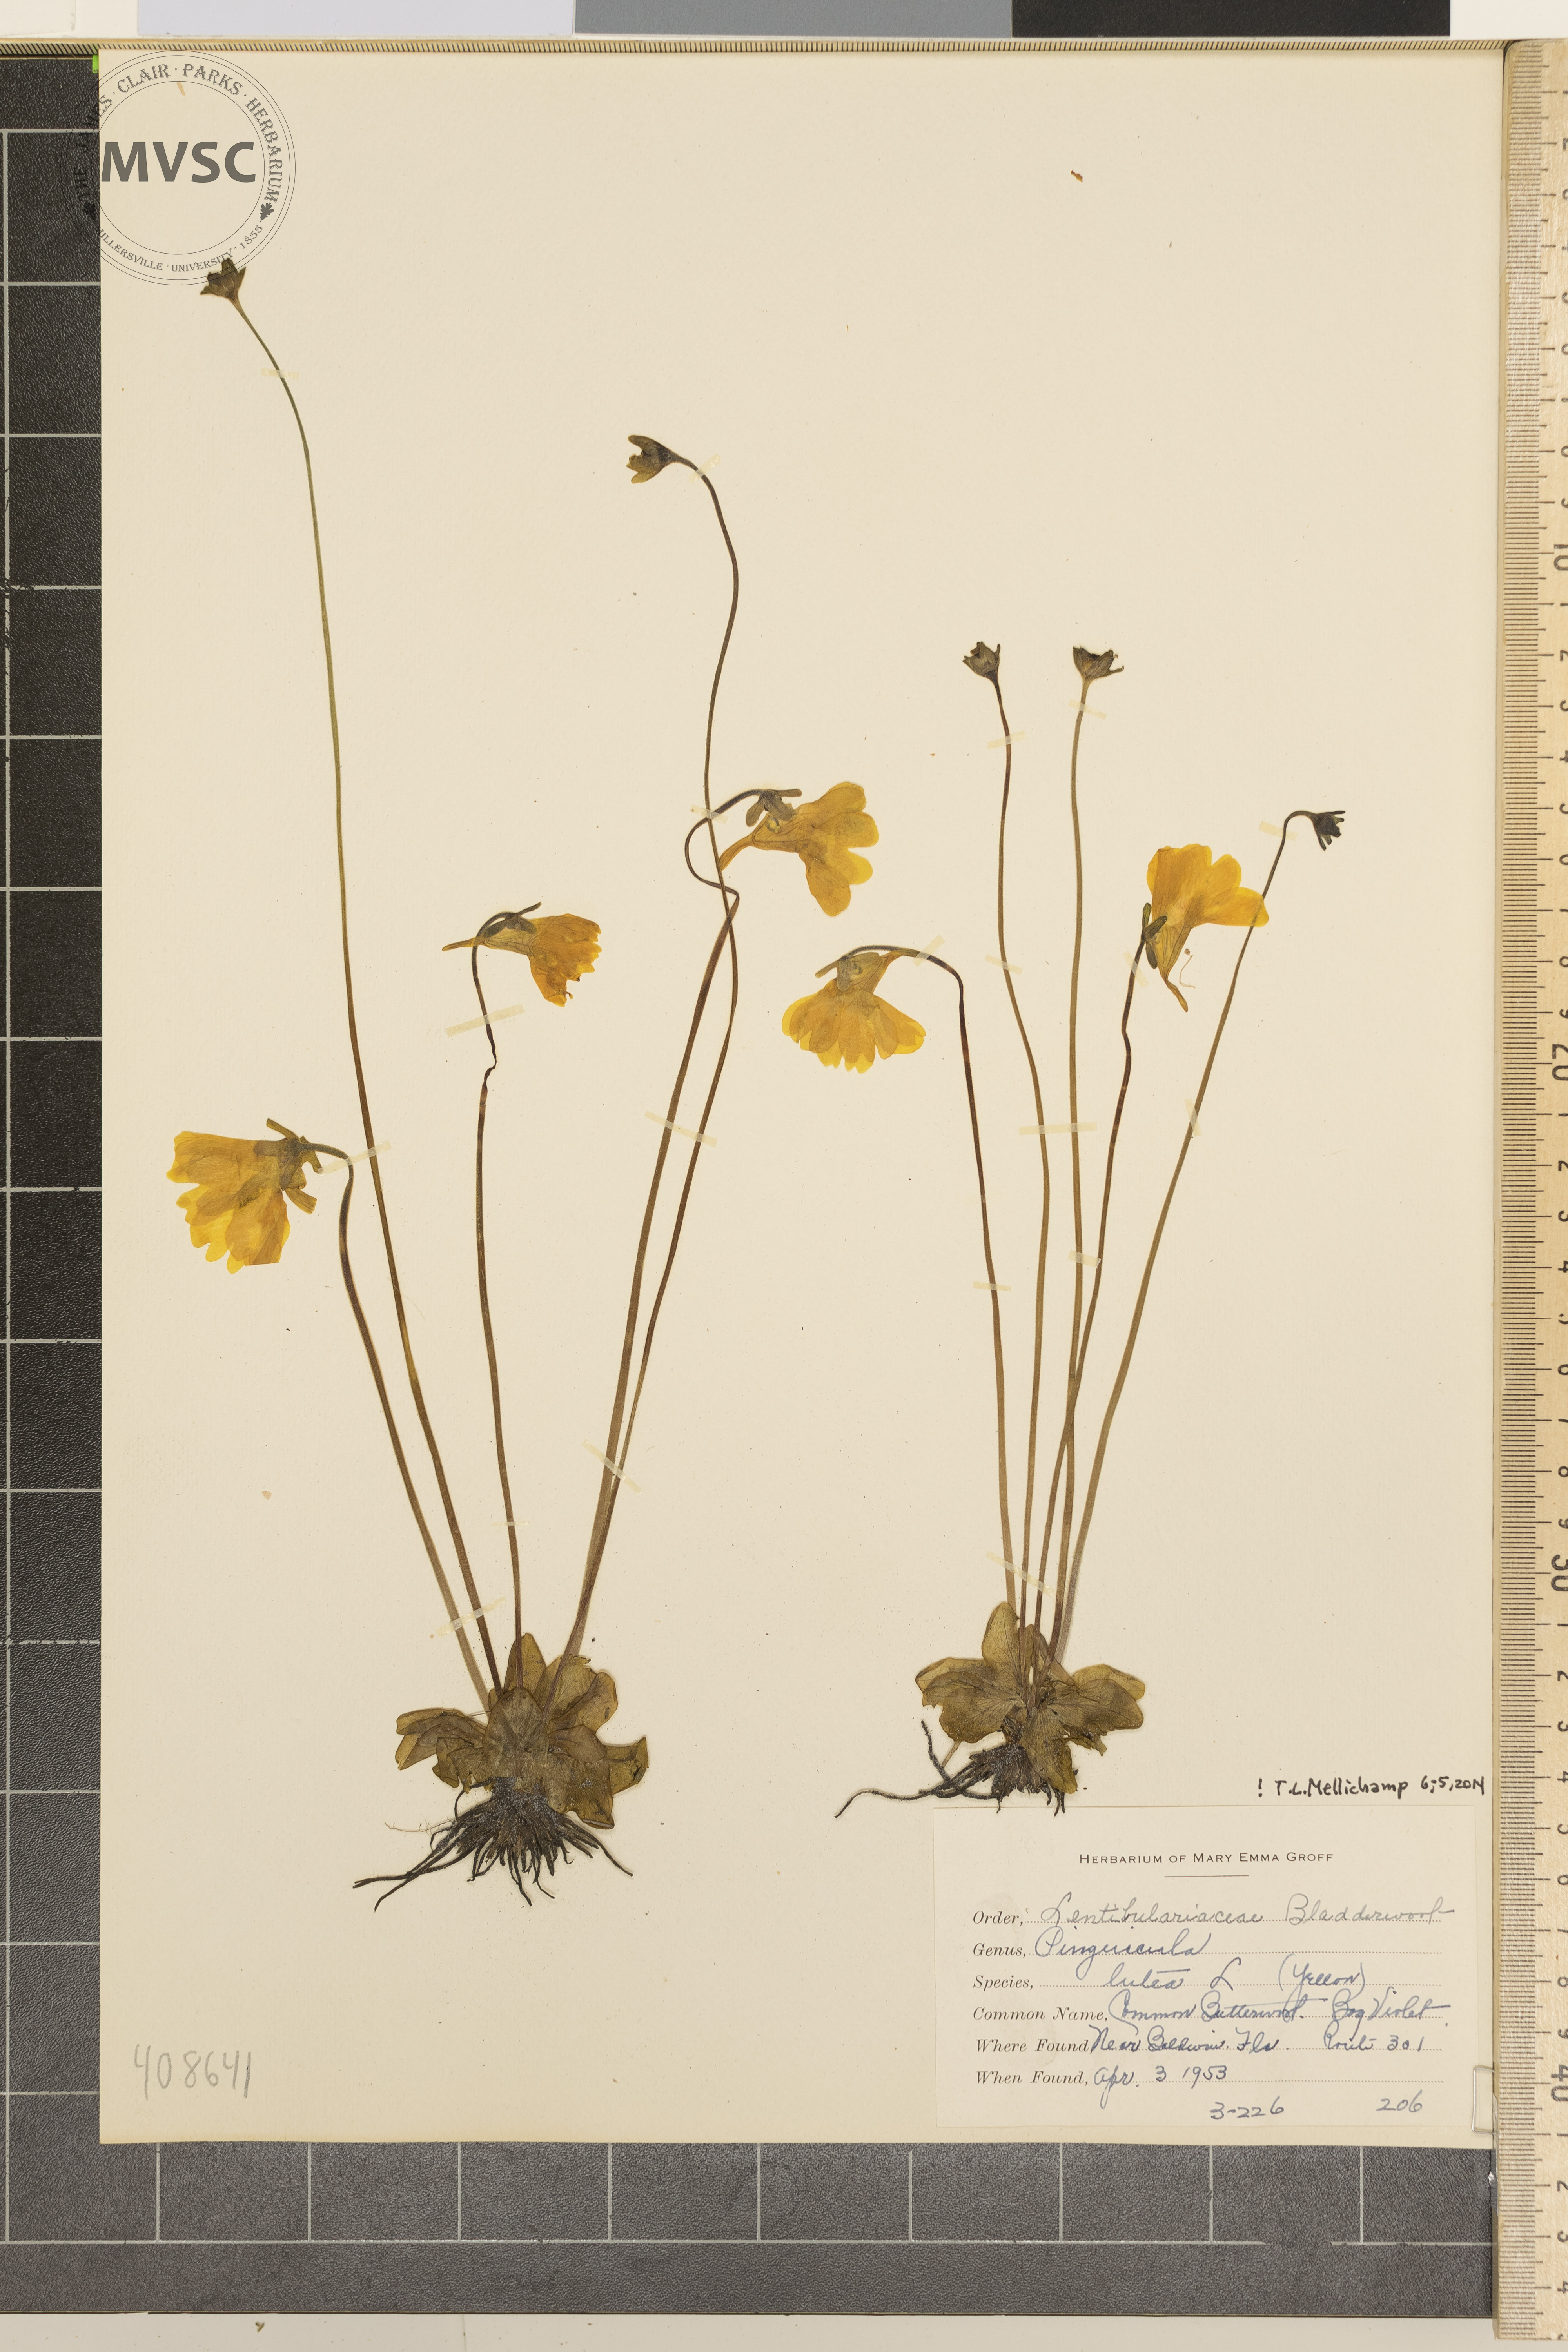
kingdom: Plantae
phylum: Tracheophyta
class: Magnoliopsida
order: Lamiales
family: Lentibulariaceae
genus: Pinguicula
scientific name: Pinguicula lutea
